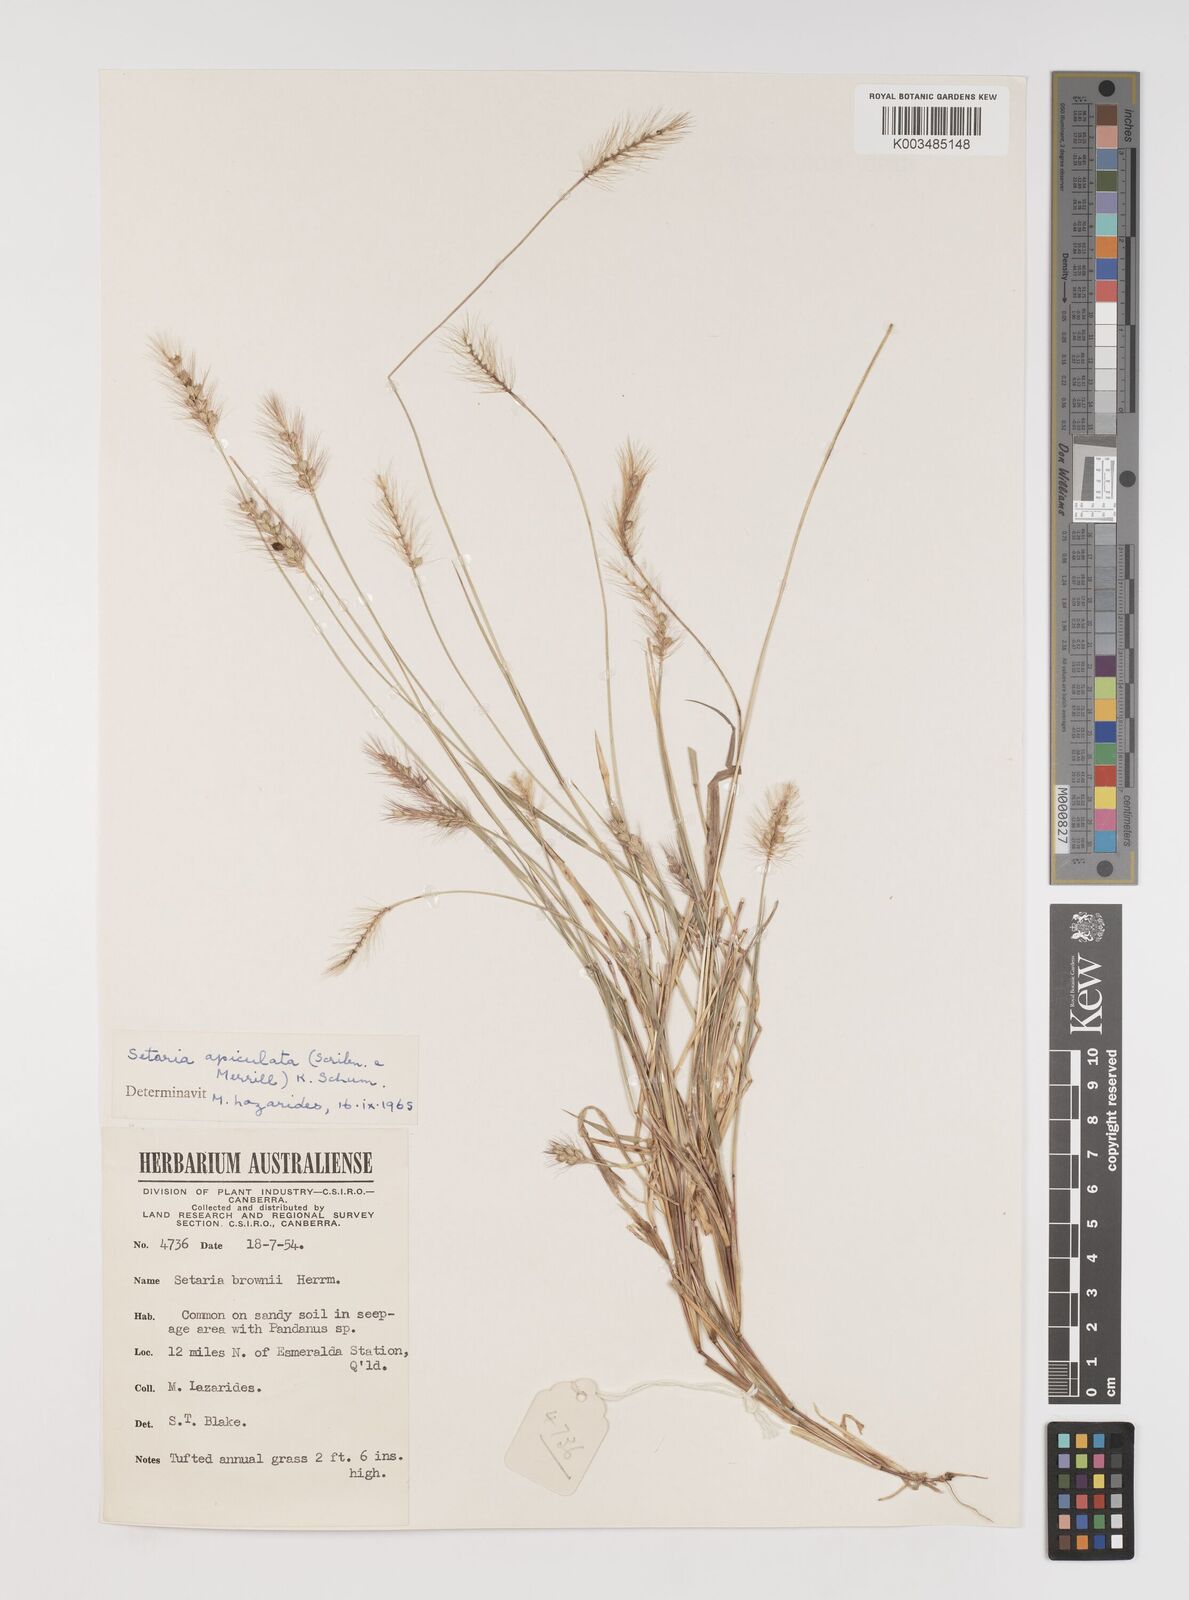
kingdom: Plantae
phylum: Tracheophyta
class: Liliopsida
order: Poales
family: Poaceae
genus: Setaria
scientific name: Setaria apiculata
